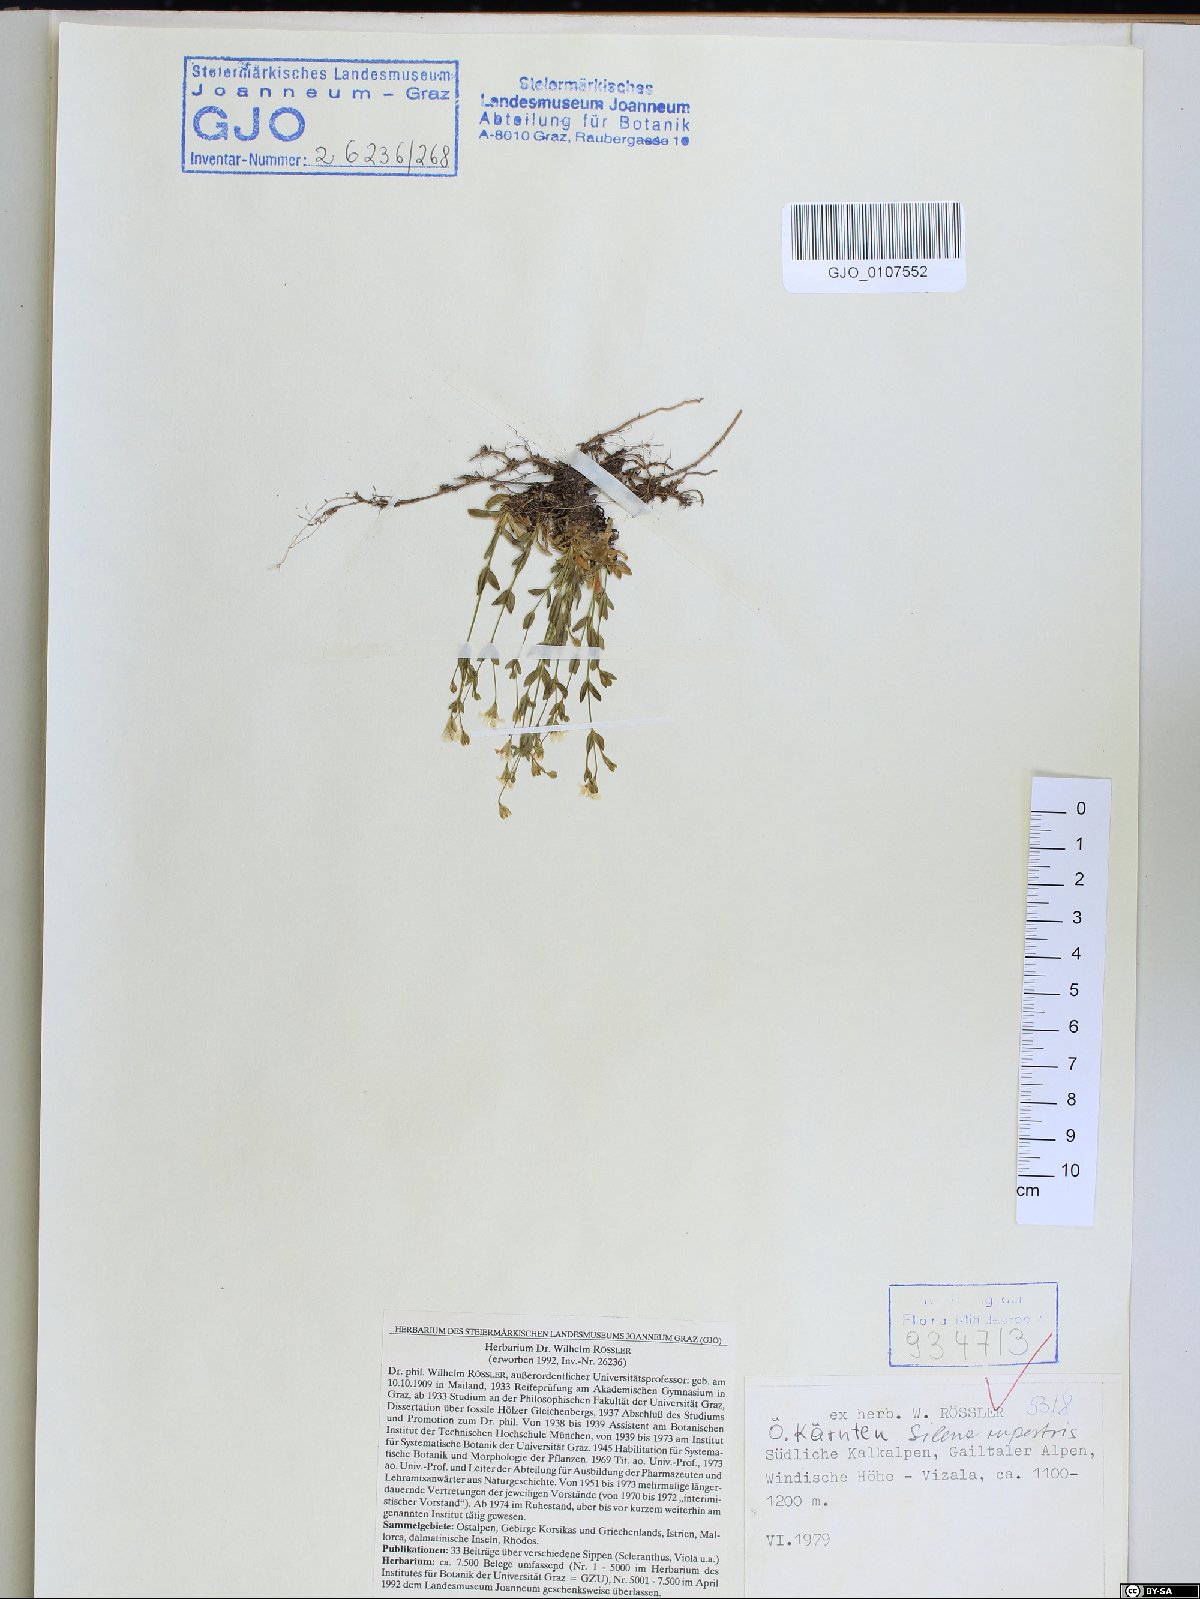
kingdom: Plantae
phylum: Tracheophyta
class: Magnoliopsida
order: Caryophyllales
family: Caryophyllaceae
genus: Atocion
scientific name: Atocion rupestre
